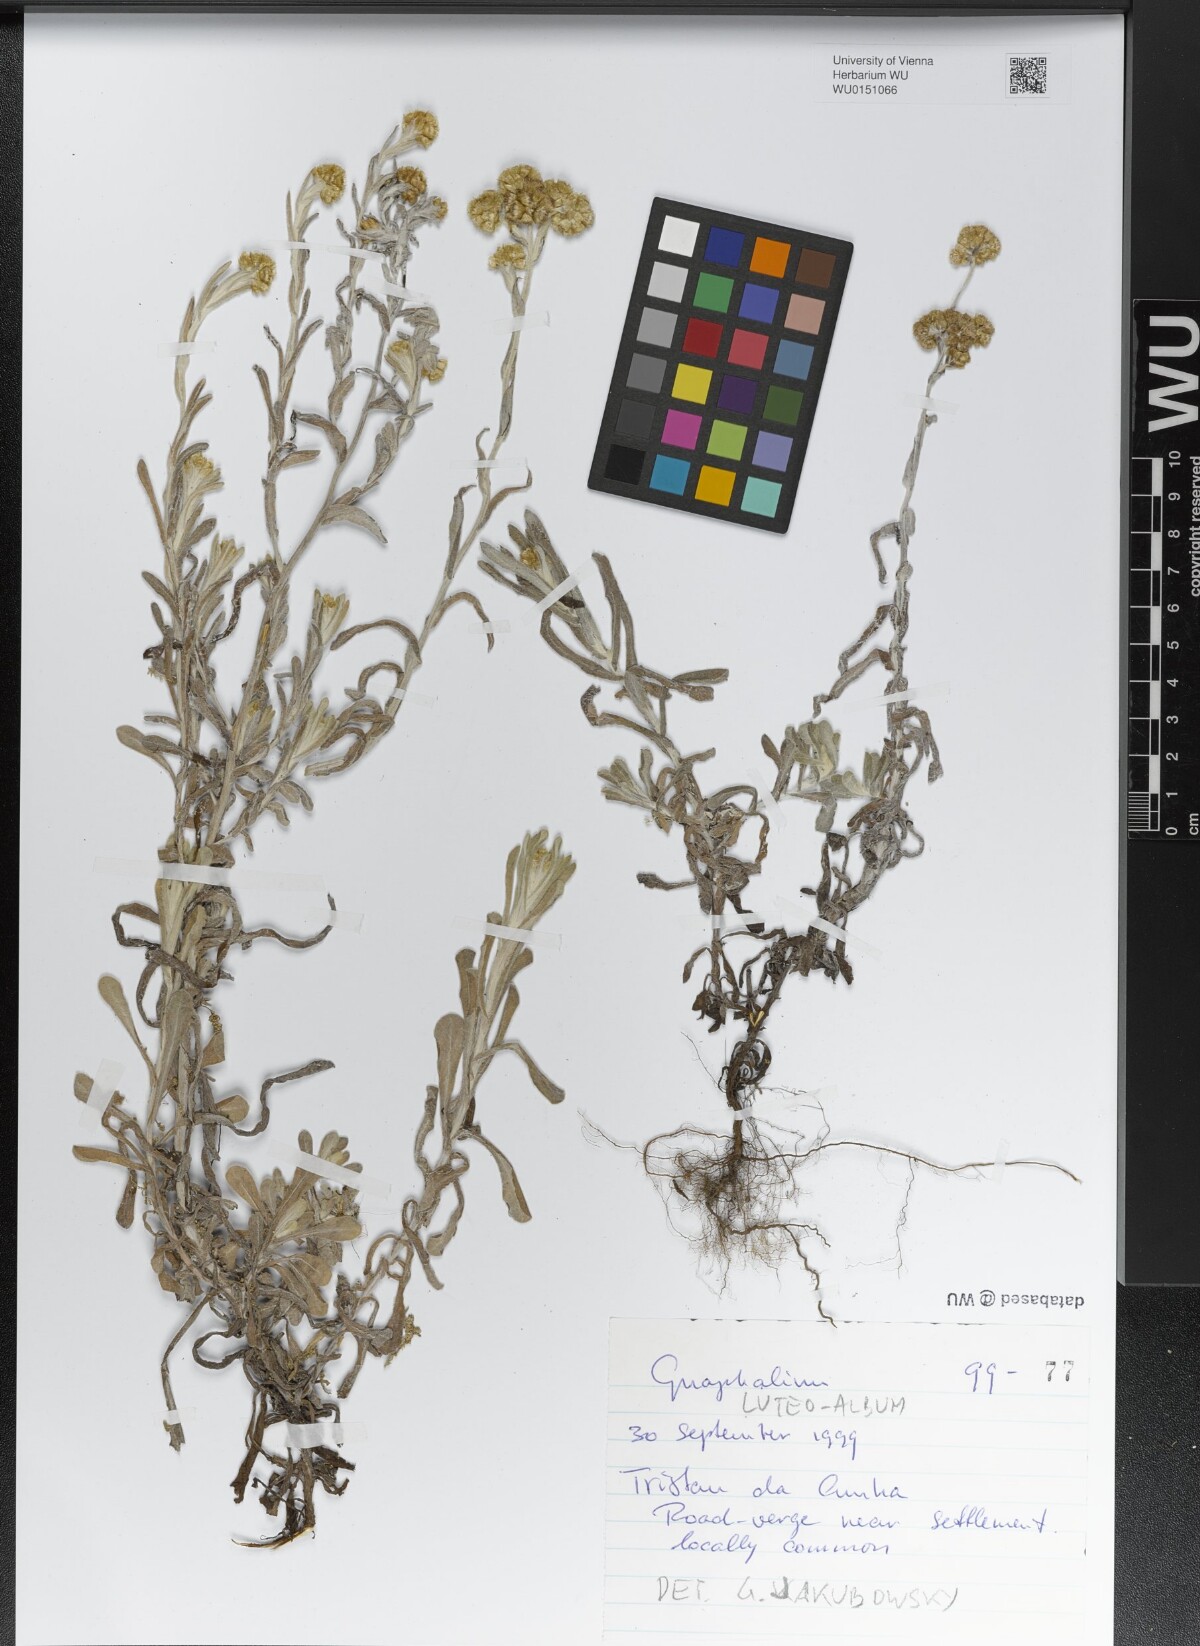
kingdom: Plantae
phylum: Tracheophyta
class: Magnoliopsida
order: Asterales
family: Asteraceae
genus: Helichrysum
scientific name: Helichrysum luteoalbum
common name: Daisy
